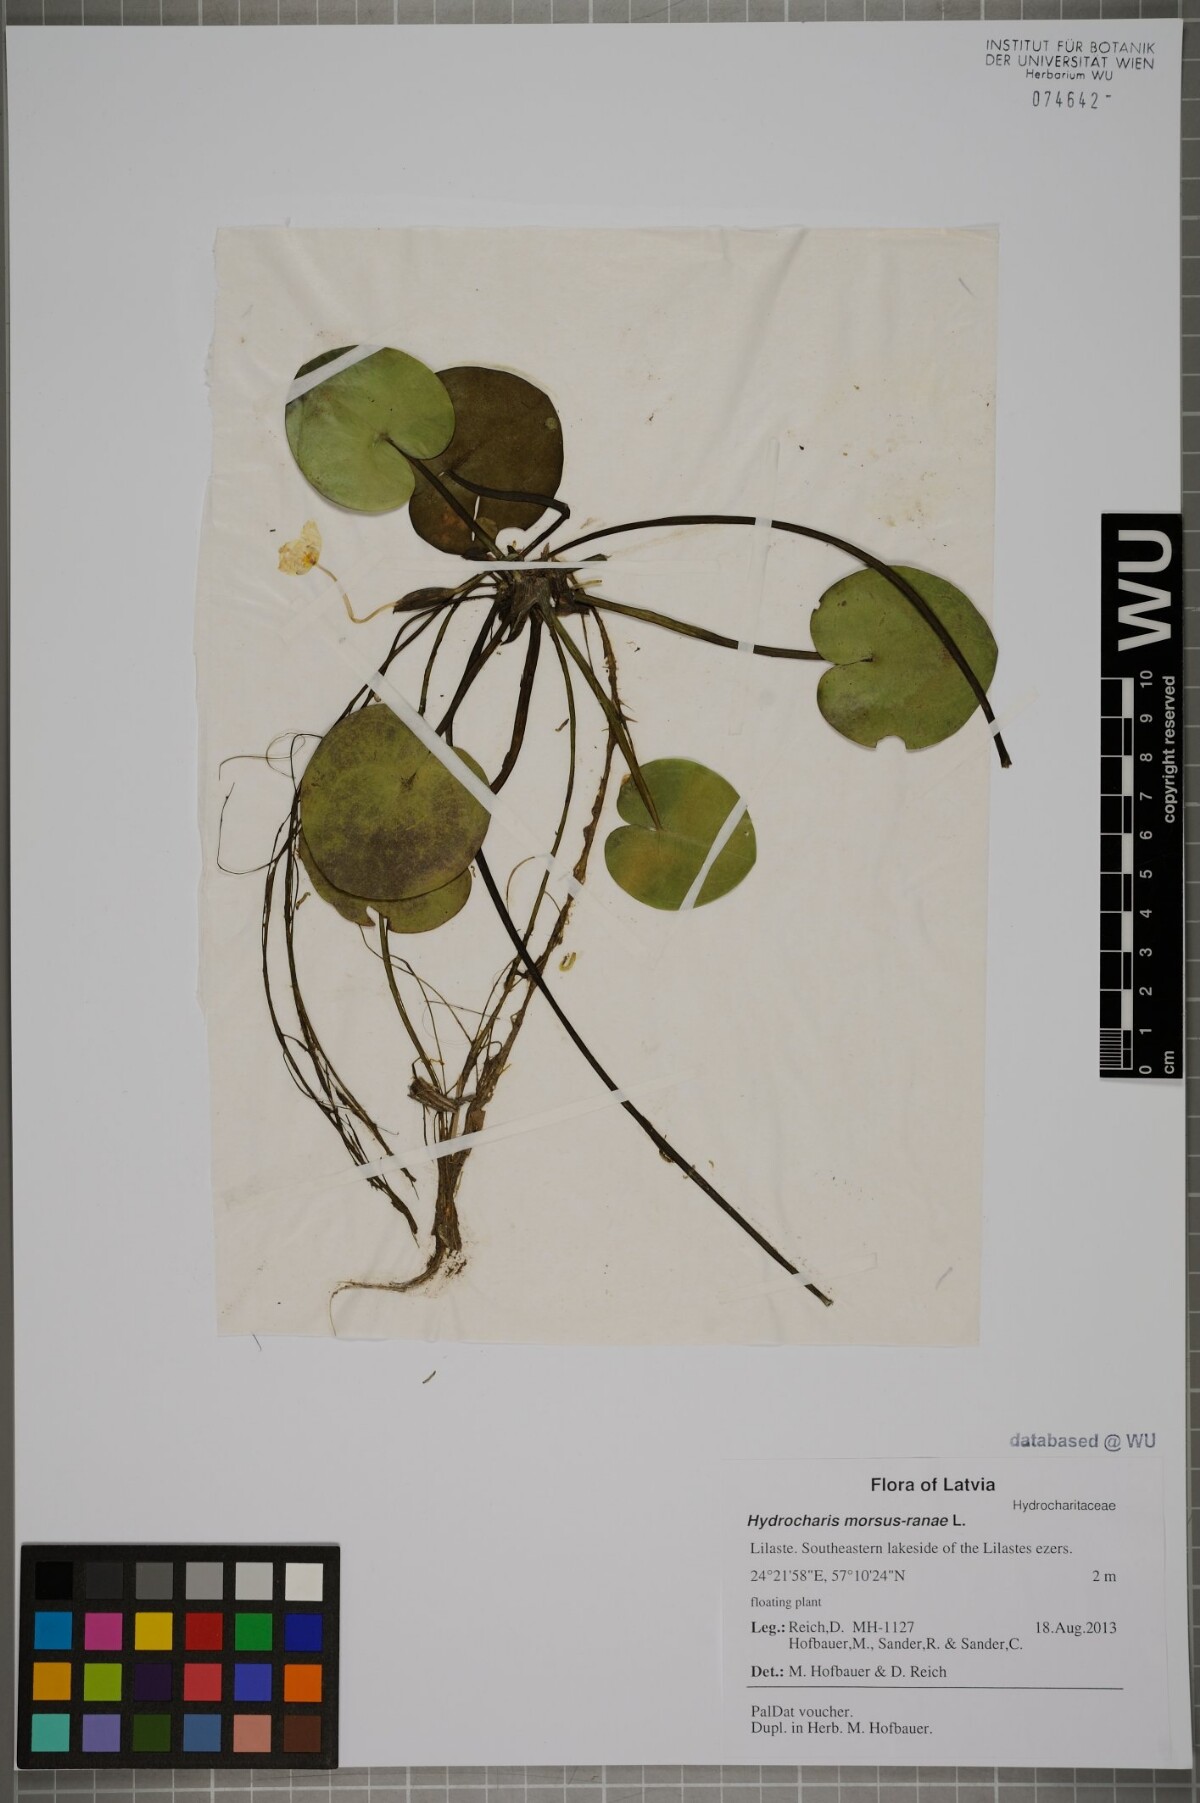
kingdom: Plantae
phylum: Tracheophyta
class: Liliopsida
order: Alismatales
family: Hydrocharitaceae
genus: Hydrocharis
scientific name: Hydrocharis morsus-ranae
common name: Frogbit
